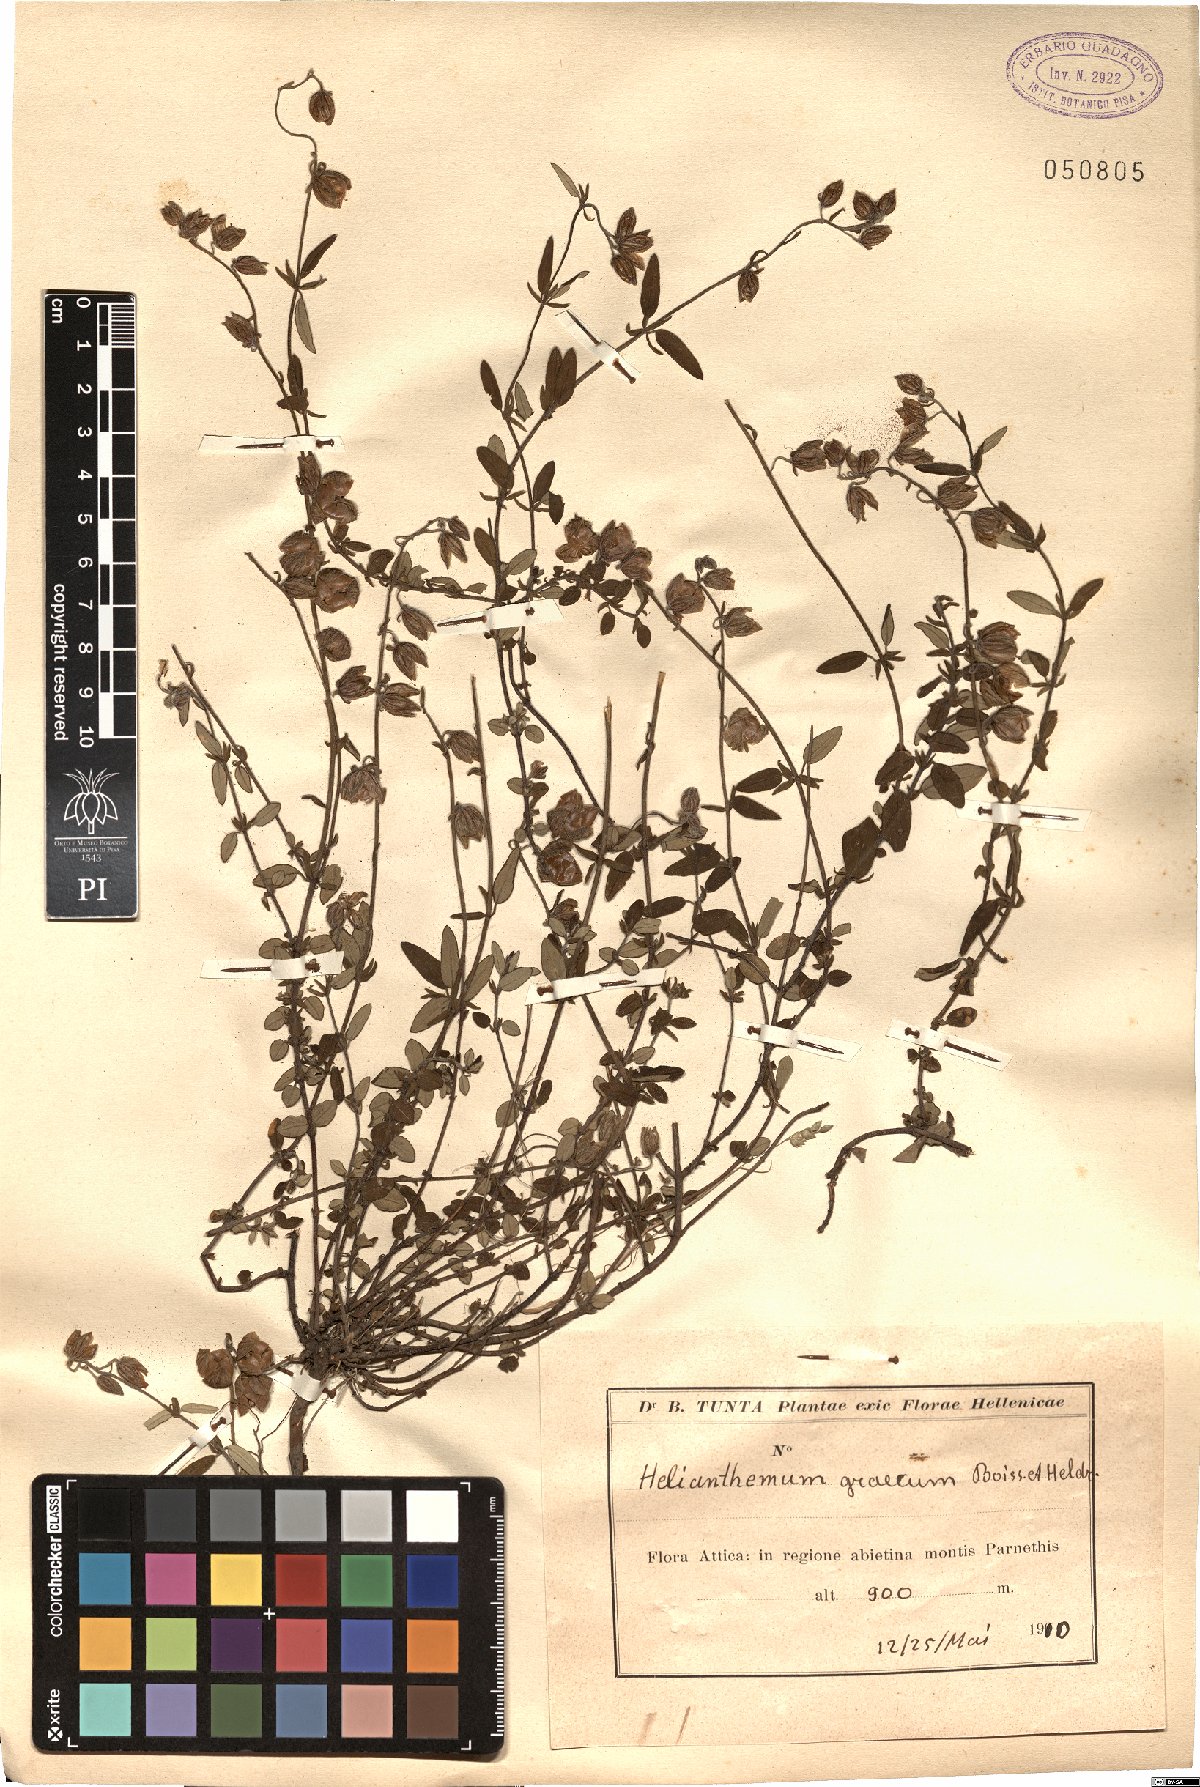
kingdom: Plantae
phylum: Tracheophyta
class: Magnoliopsida
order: Malvales
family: Cistaceae
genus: Helianthemum
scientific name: Helianthemum nummularium
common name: Common rock-rose
